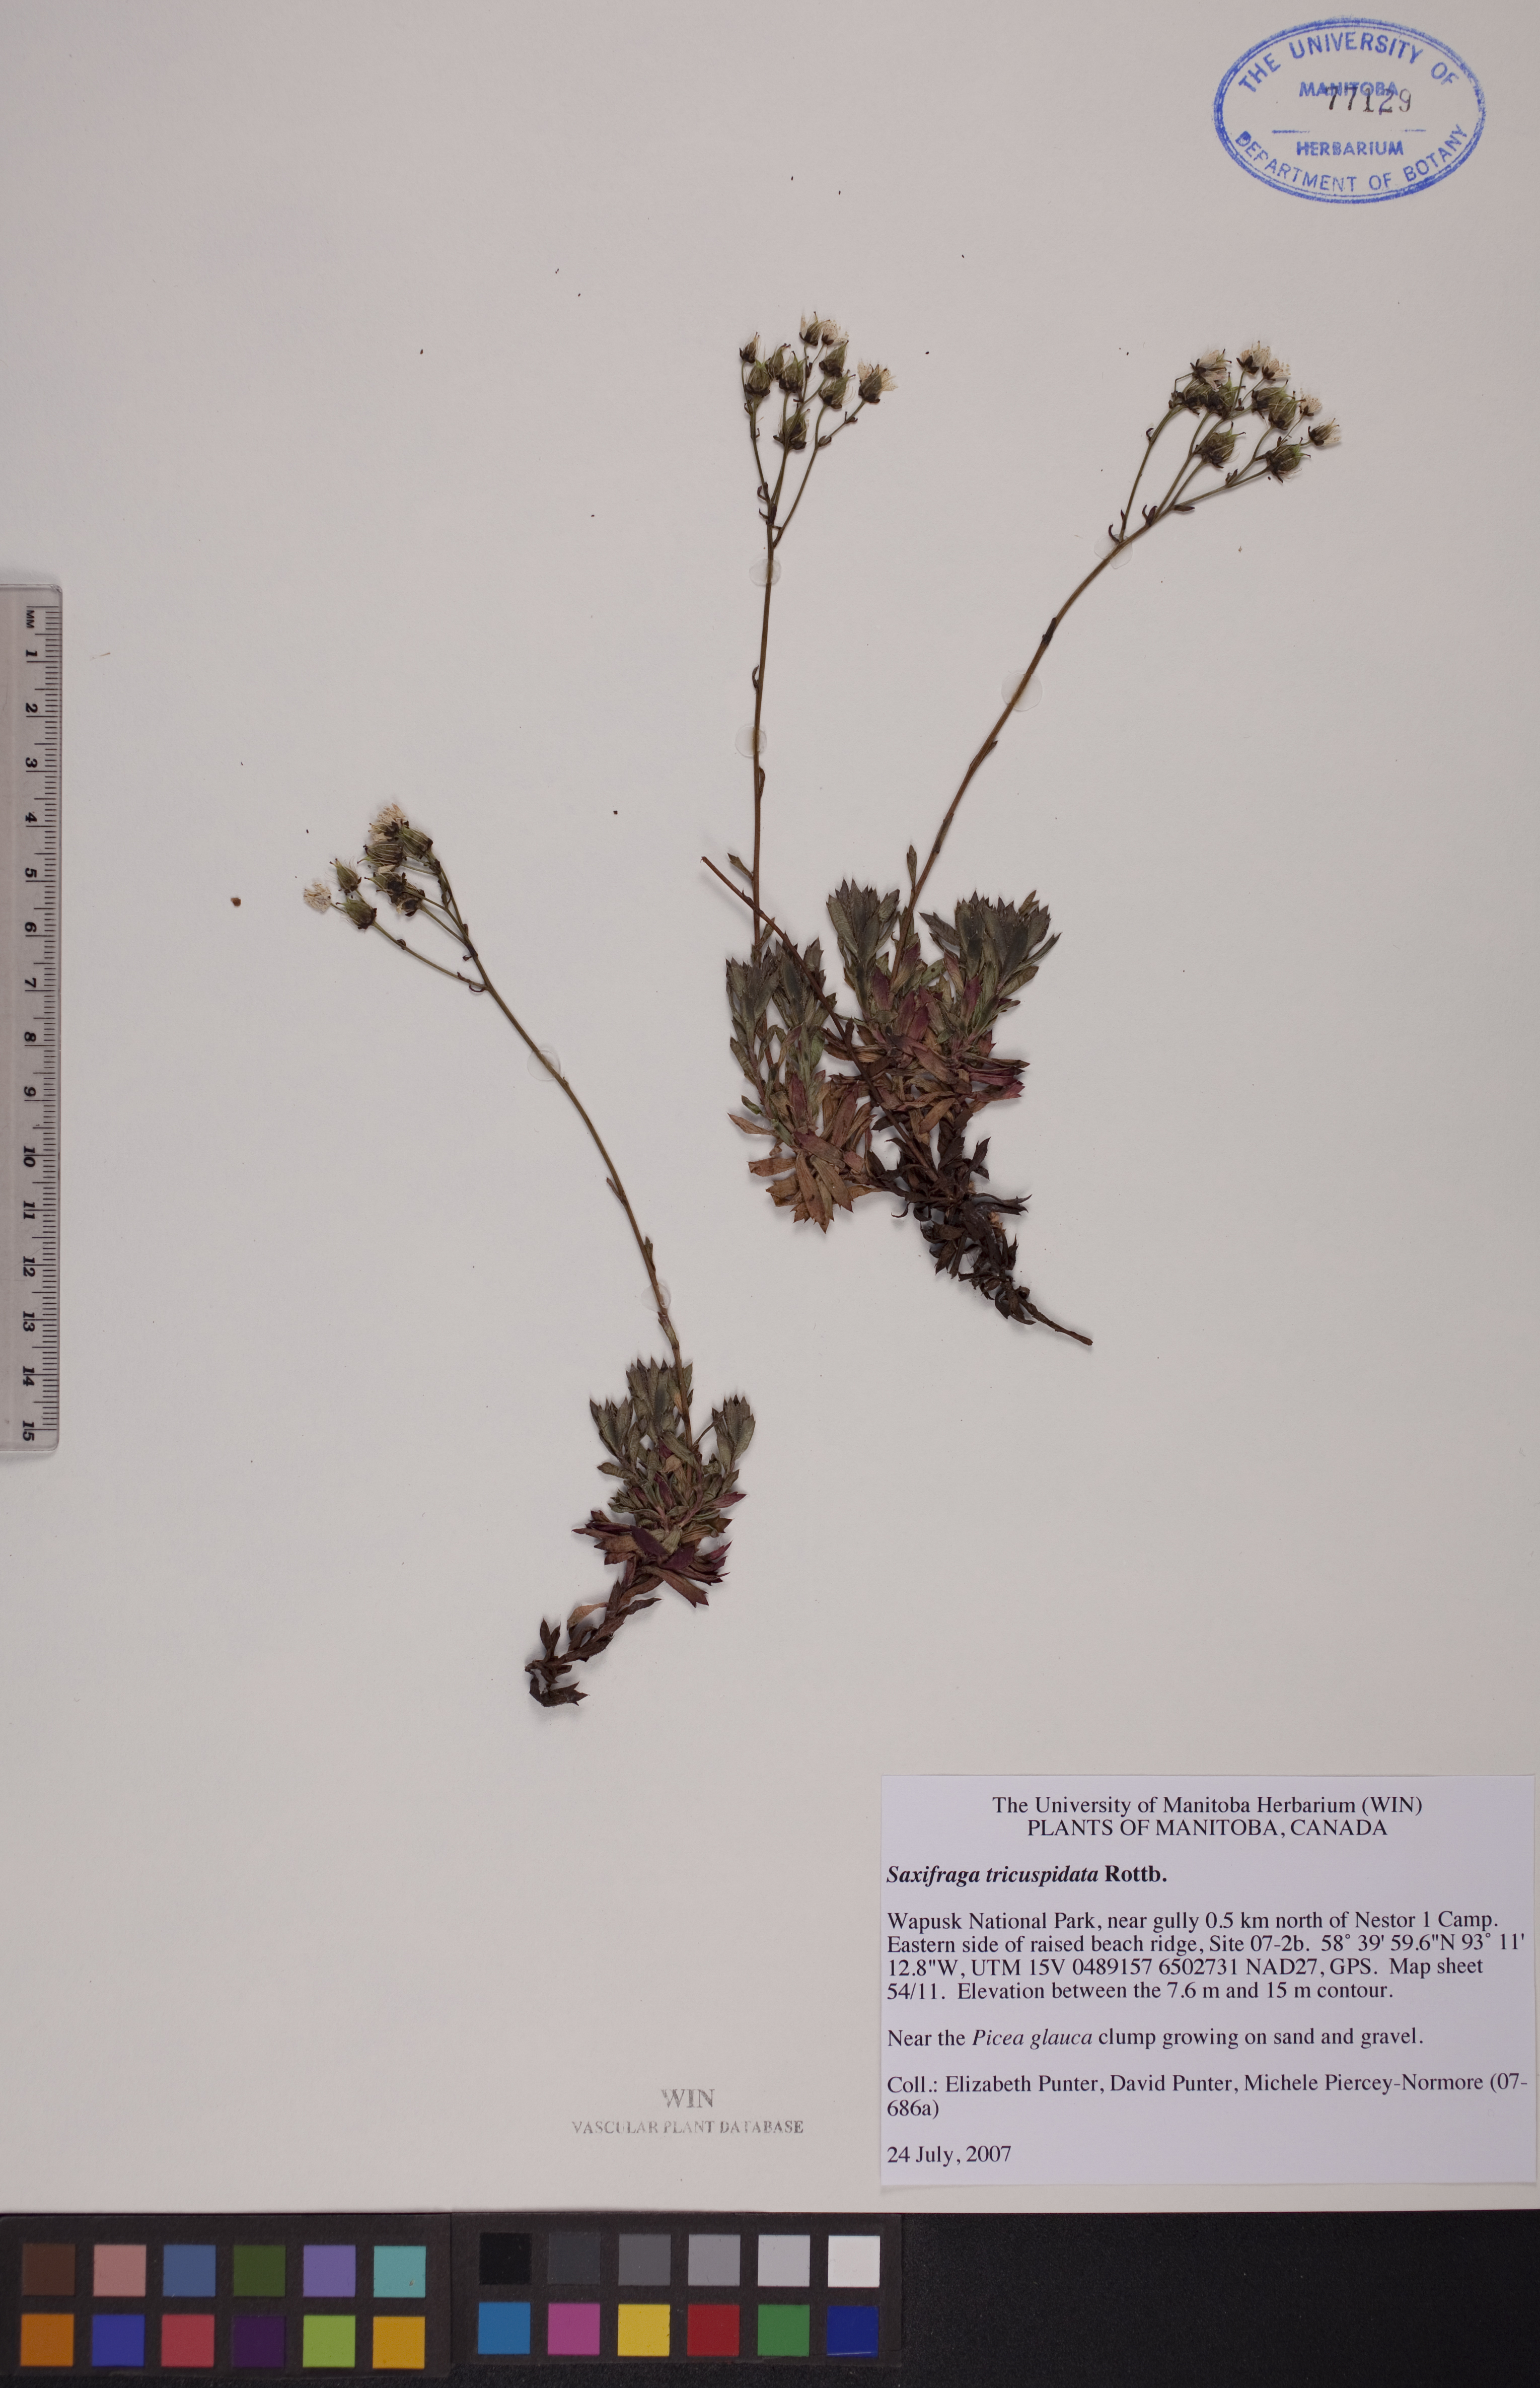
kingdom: Plantae
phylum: Tracheophyta
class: Magnoliopsida
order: Saxifragales
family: Saxifragaceae
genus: Saxifraga
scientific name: Saxifraga tricuspidata
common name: Prickly saxifrage
